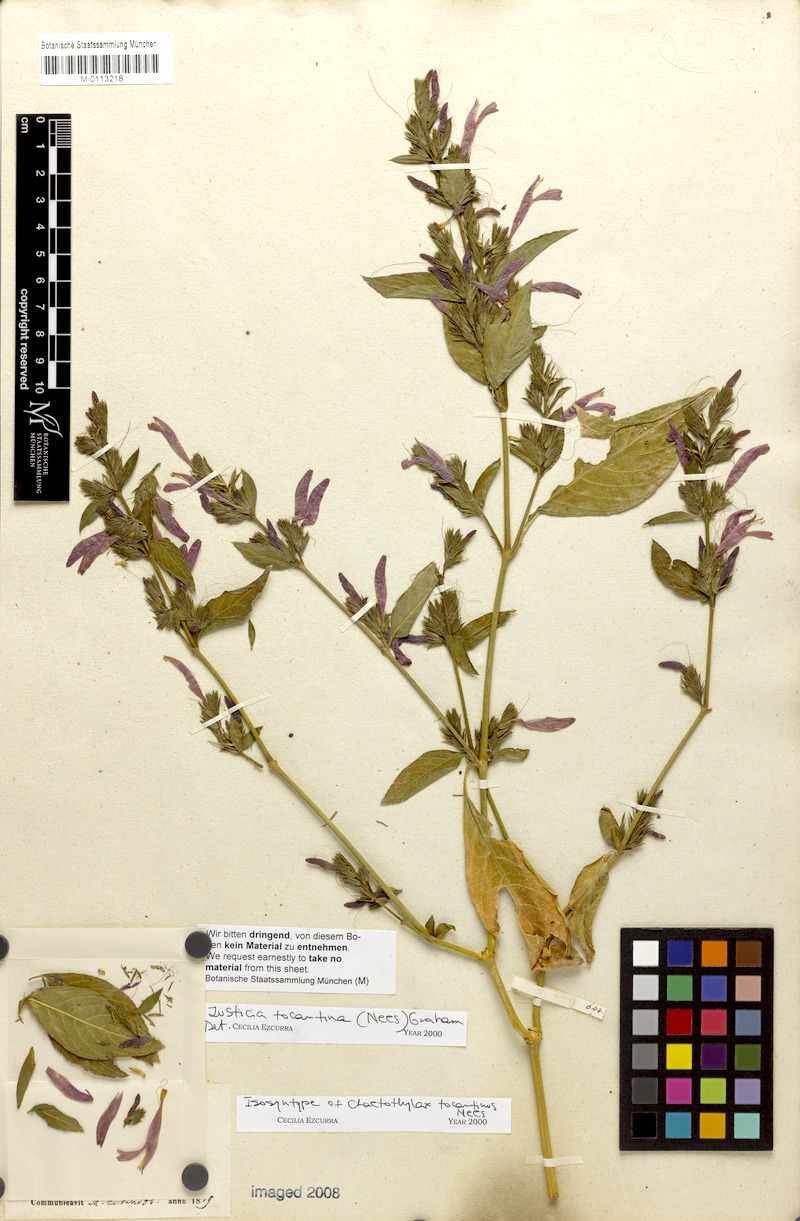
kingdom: Plantae
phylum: Tracheophyta
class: Magnoliopsida
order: Lamiales
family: Acanthaceae
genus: Justicia
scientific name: Justicia tocantina
